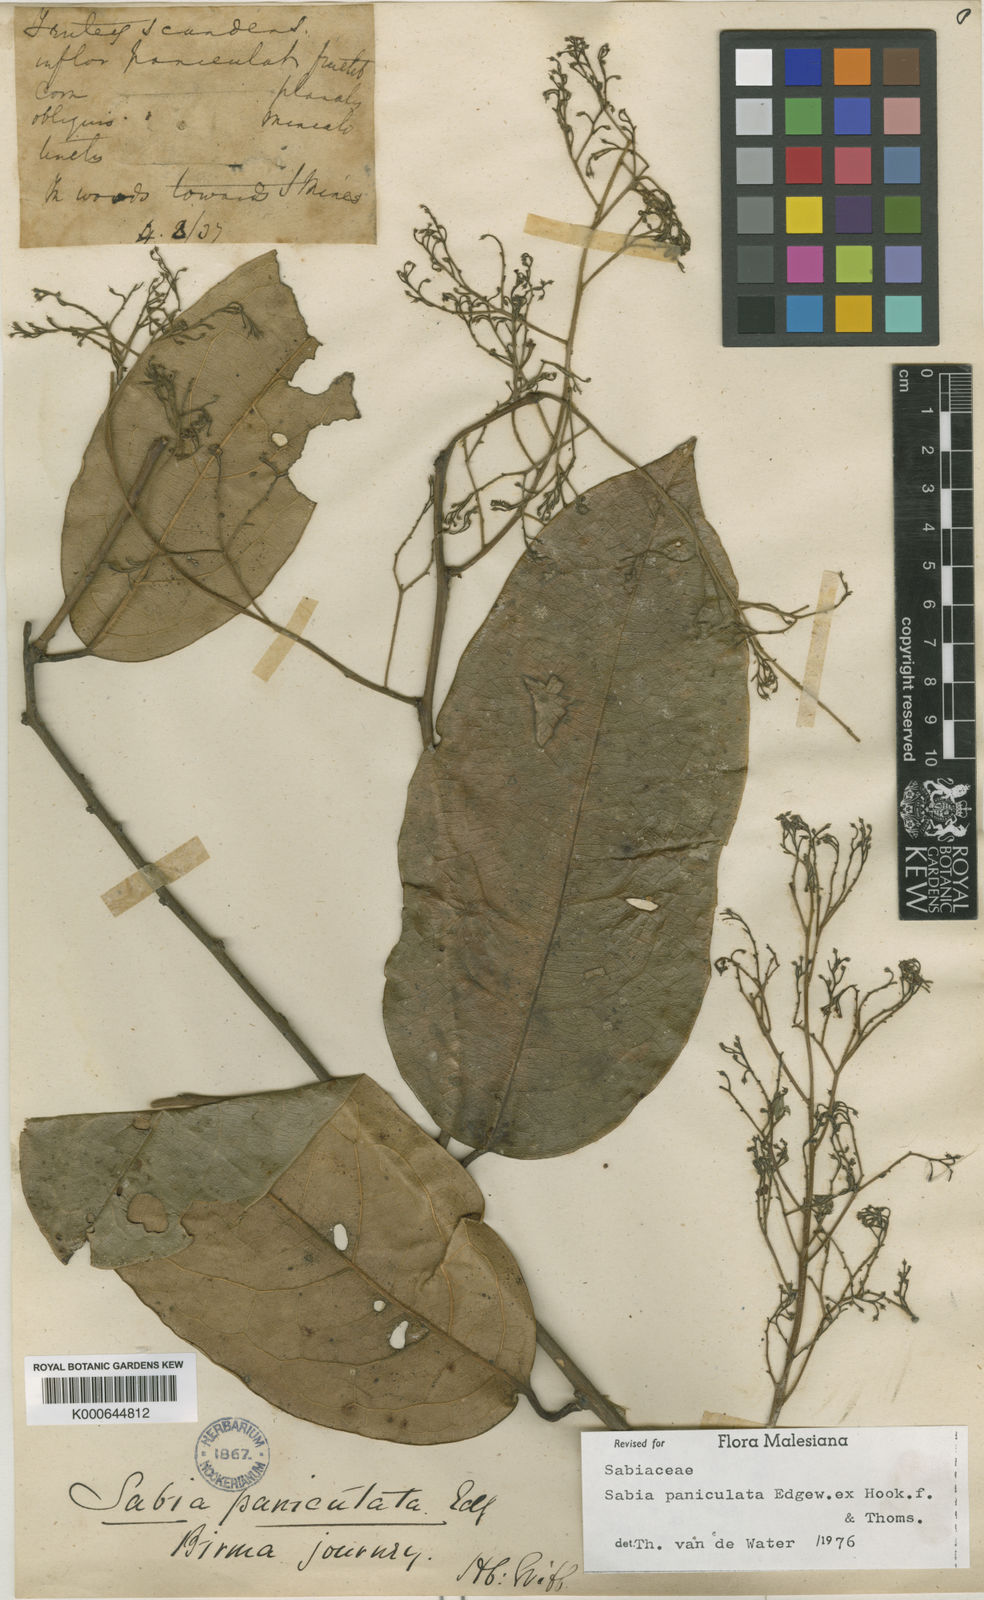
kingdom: Plantae
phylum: Tracheophyta
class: Magnoliopsida
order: Proteales
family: Sabiaceae
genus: Sabia
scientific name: Sabia paniculata
